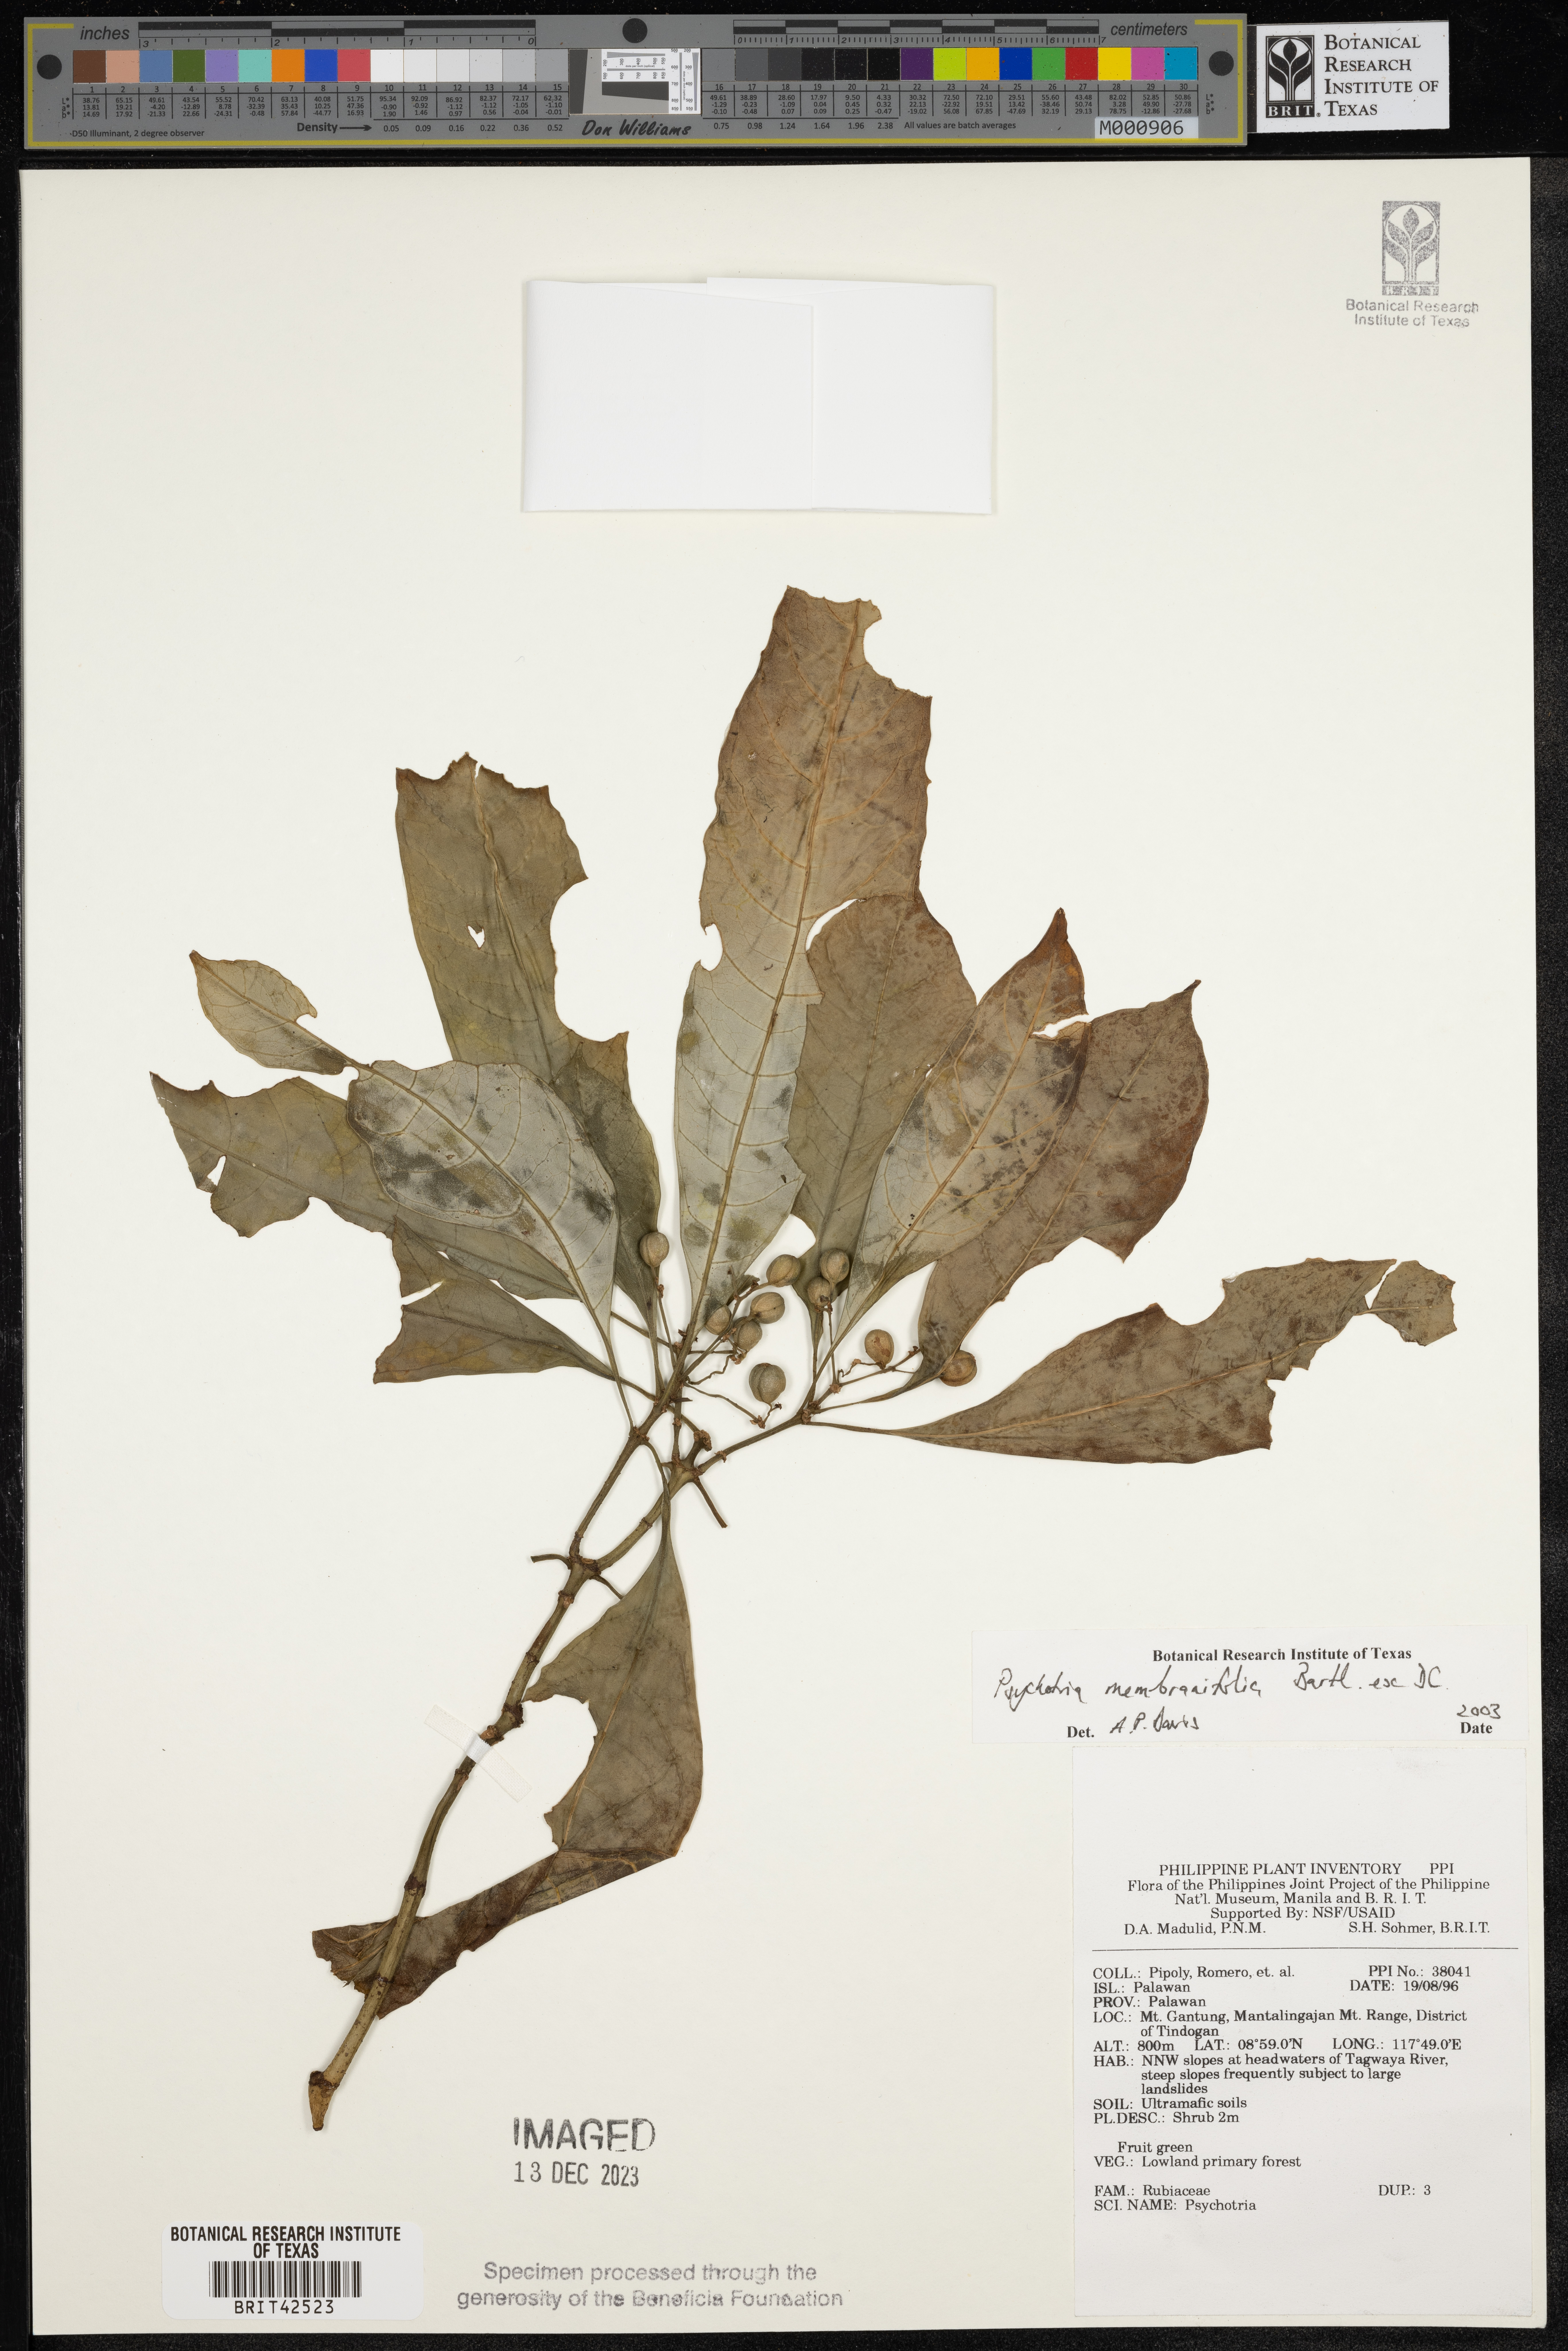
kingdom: Plantae
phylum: Tracheophyta
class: Magnoliopsida
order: Gentianales
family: Rubiaceae
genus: Eumachia
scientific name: Eumachia membranifolia
